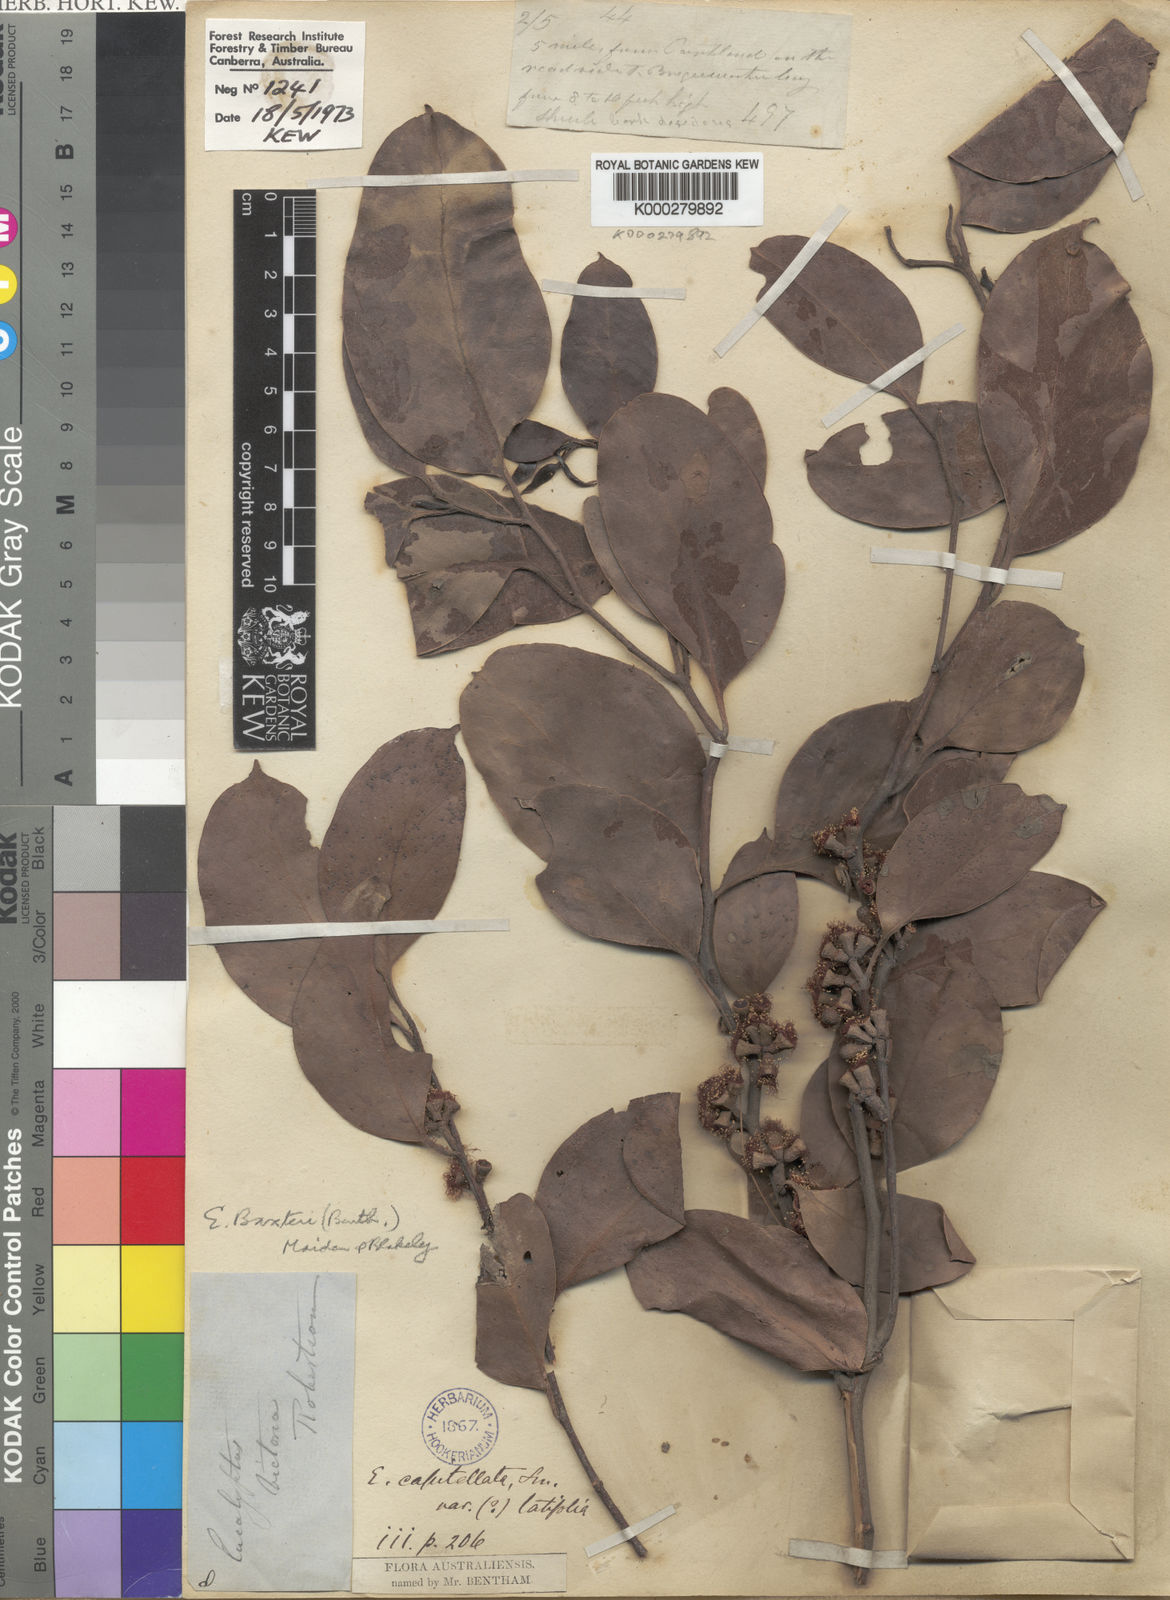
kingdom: Plantae
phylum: Tracheophyta
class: Magnoliopsida
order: Myrtales
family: Myrtaceae
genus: Eucalyptus
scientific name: Eucalyptus baxteri
